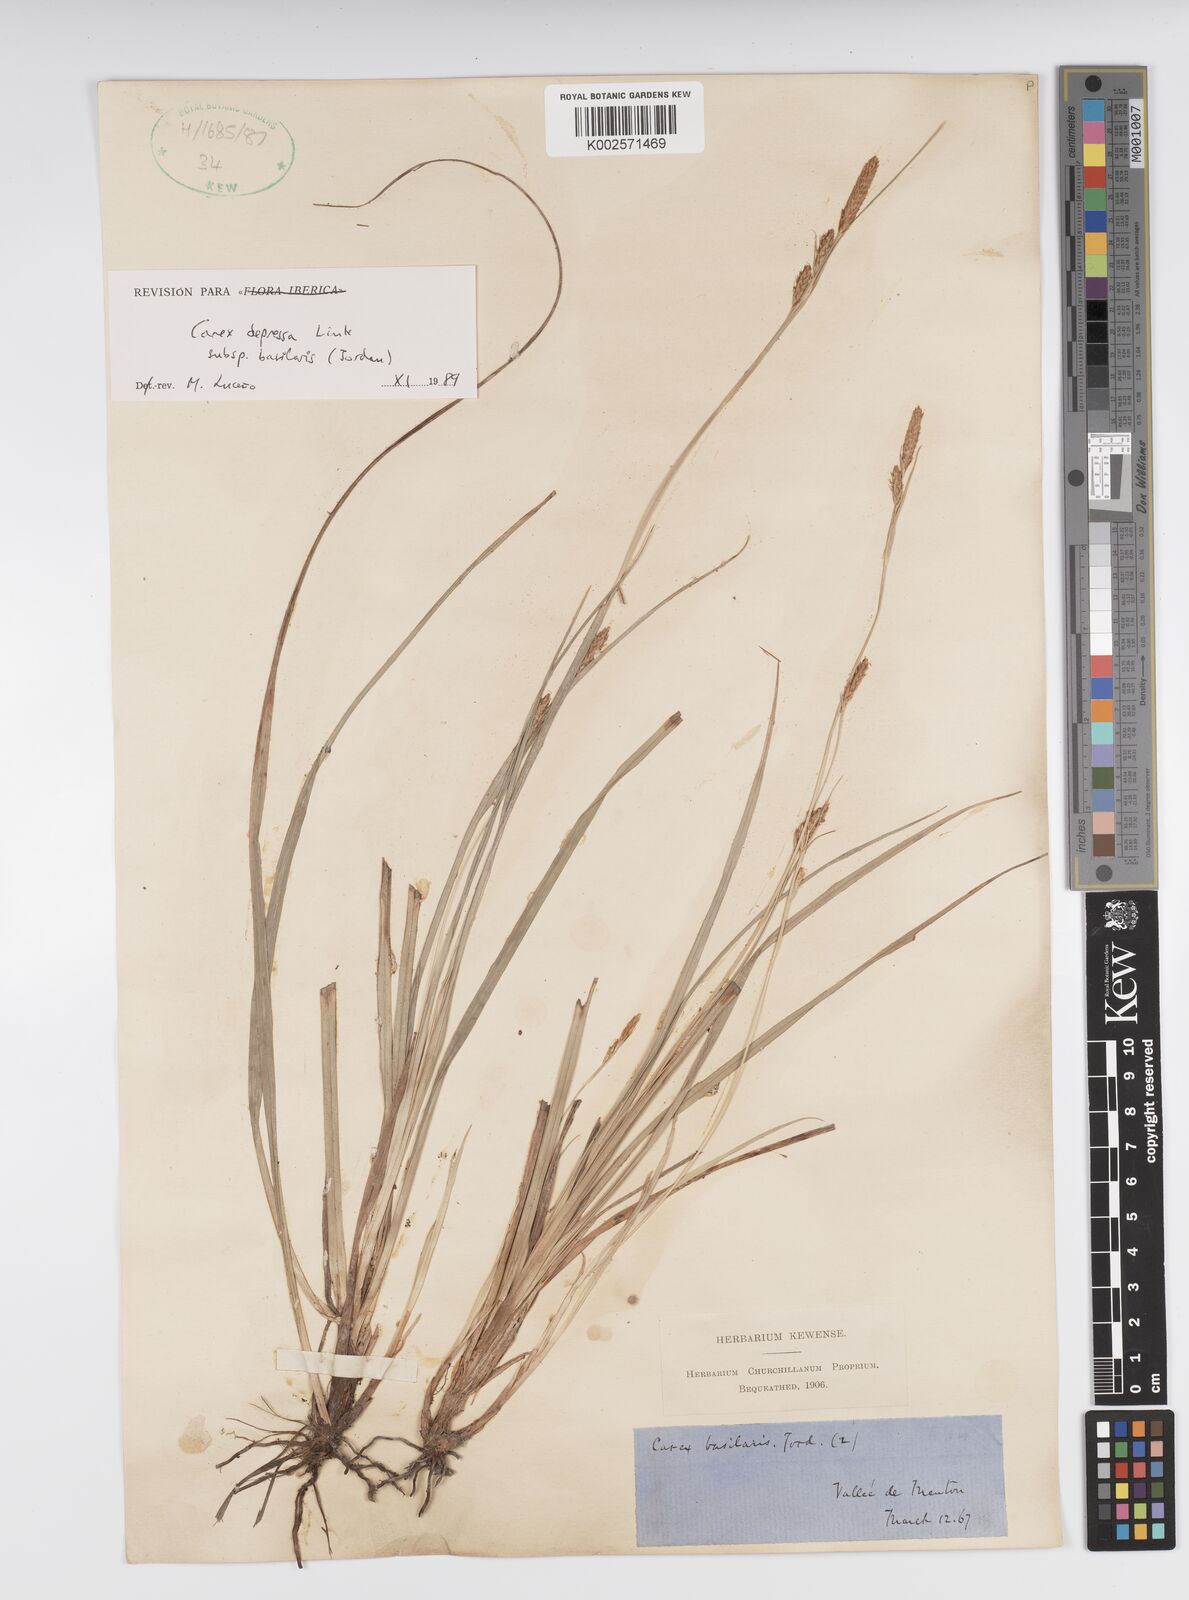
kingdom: Plantae
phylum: Tracheophyta
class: Liliopsida
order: Poales
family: Cyperaceae
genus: Carex
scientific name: Carex depressa
